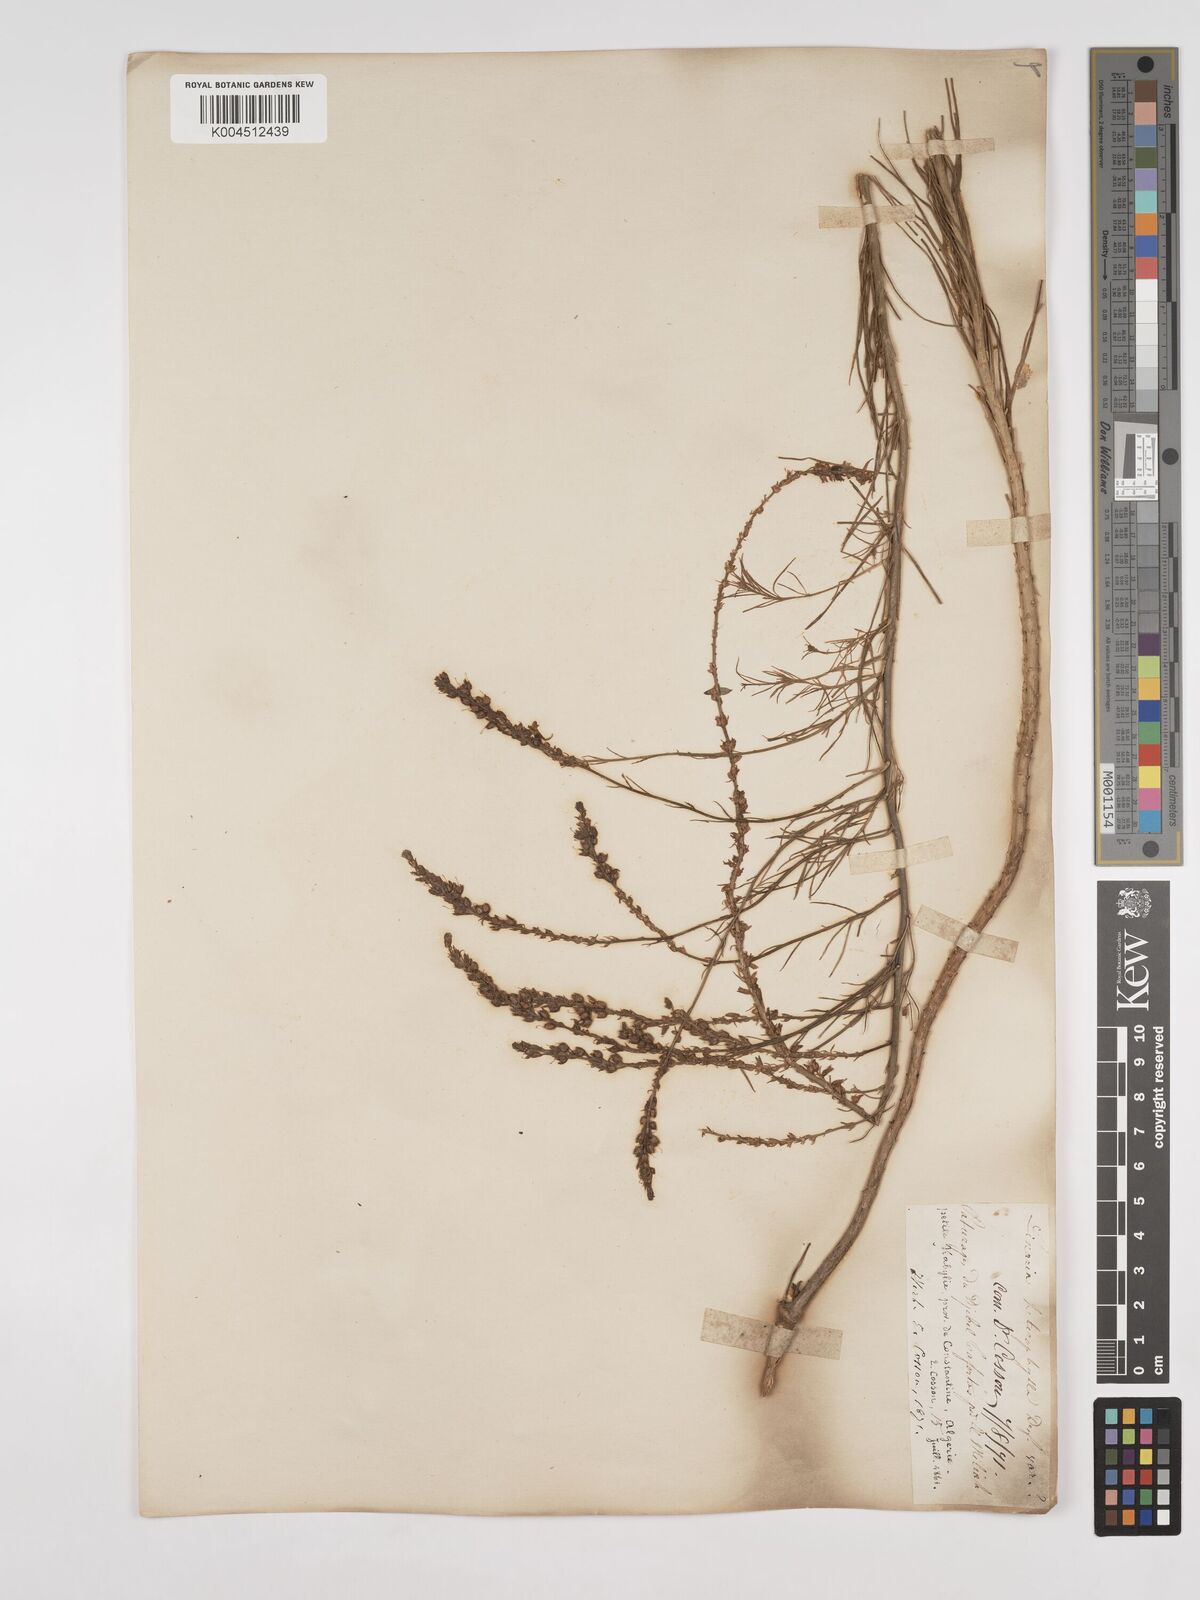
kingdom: Plantae
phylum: Tracheophyta
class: Magnoliopsida
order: Lamiales
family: Plantaginaceae
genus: Linaria
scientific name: Linaria multicaulis
